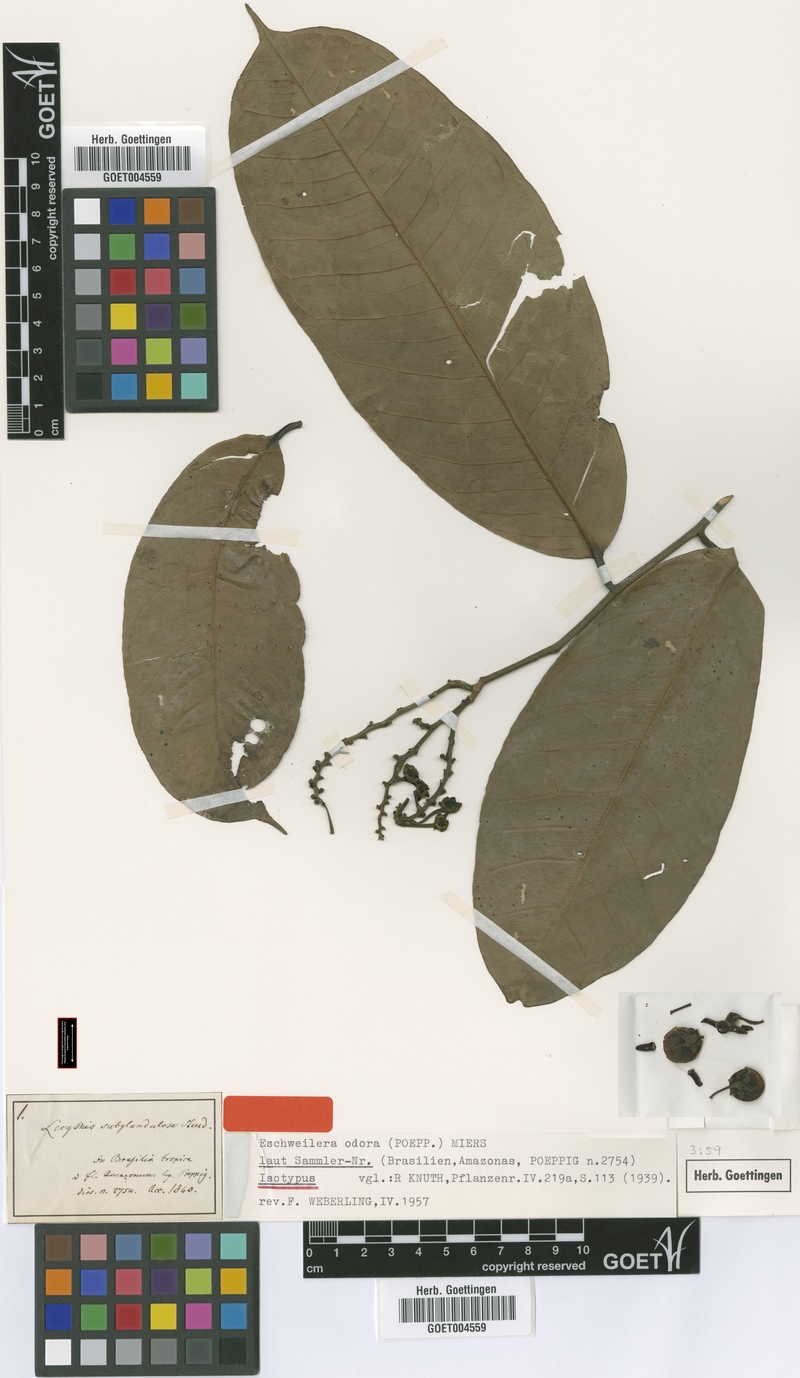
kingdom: Plantae
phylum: Tracheophyta
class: Magnoliopsida
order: Ericales
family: Lecythidaceae
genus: Eschweilera
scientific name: Eschweilera coriacea
